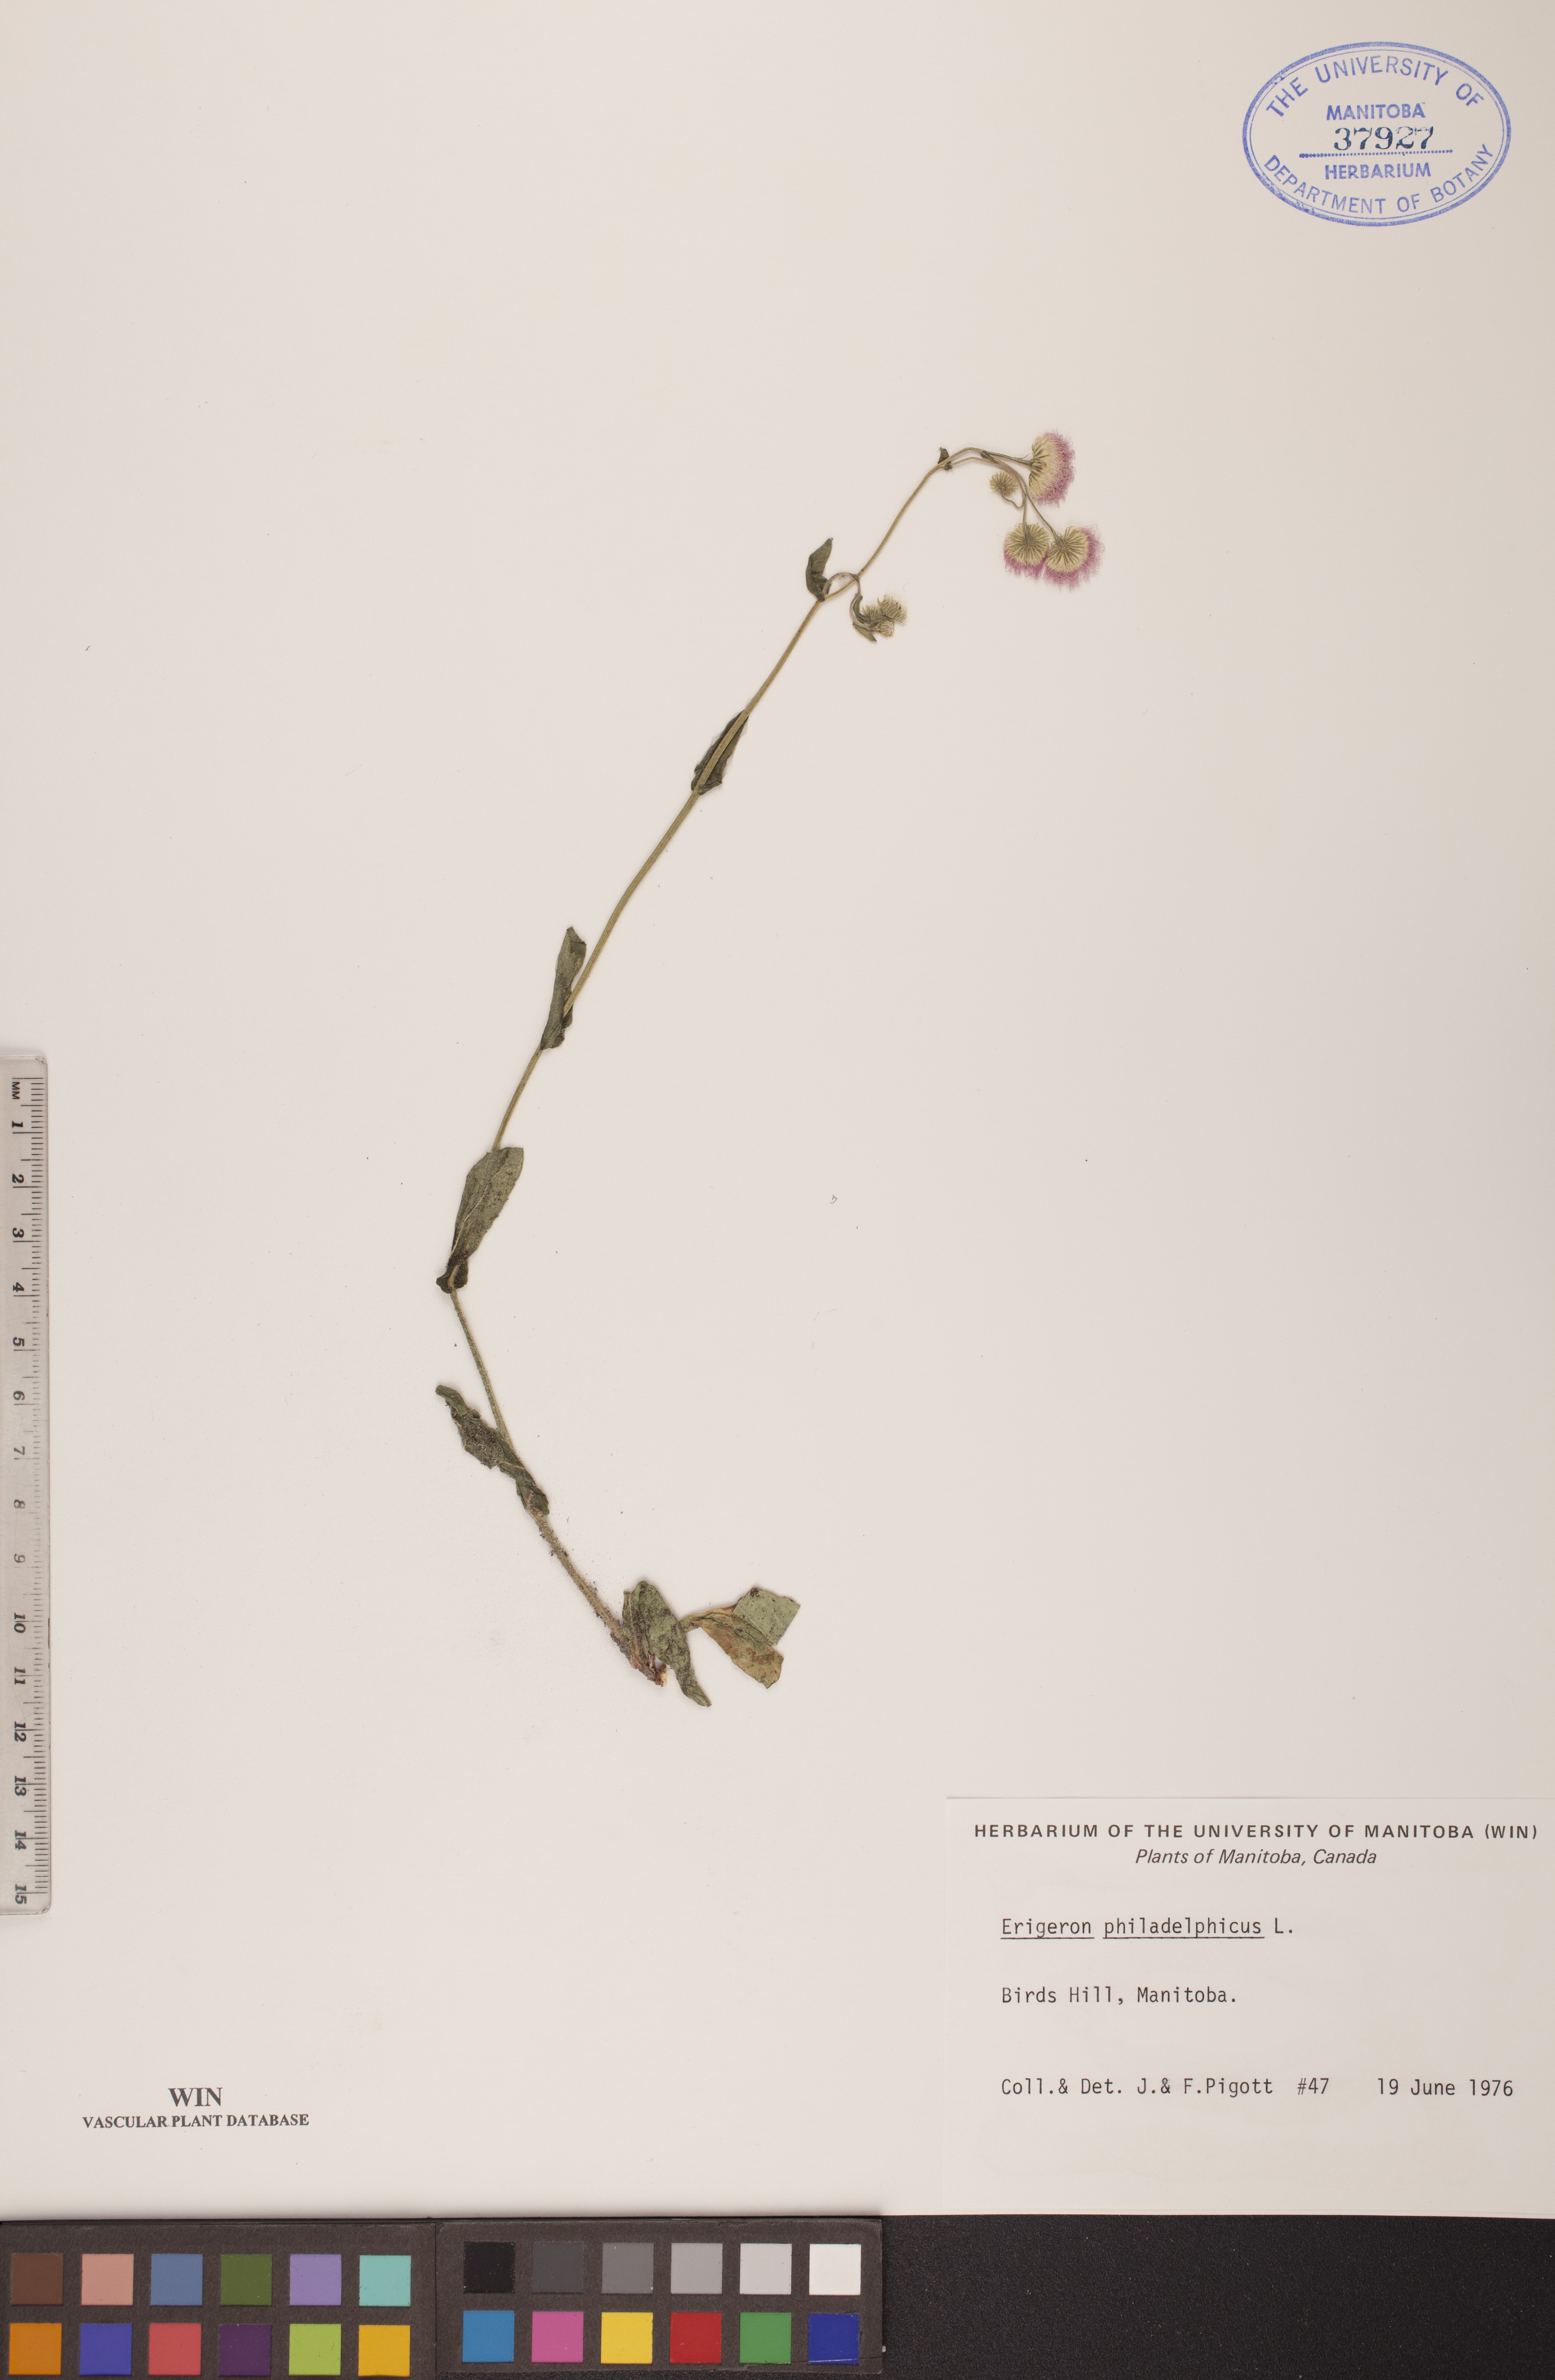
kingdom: Plantae
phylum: Tracheophyta
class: Magnoliopsida
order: Asterales
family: Asteraceae
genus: Erigeron
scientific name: Erigeron philadelphicus
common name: Robin's-plantain
